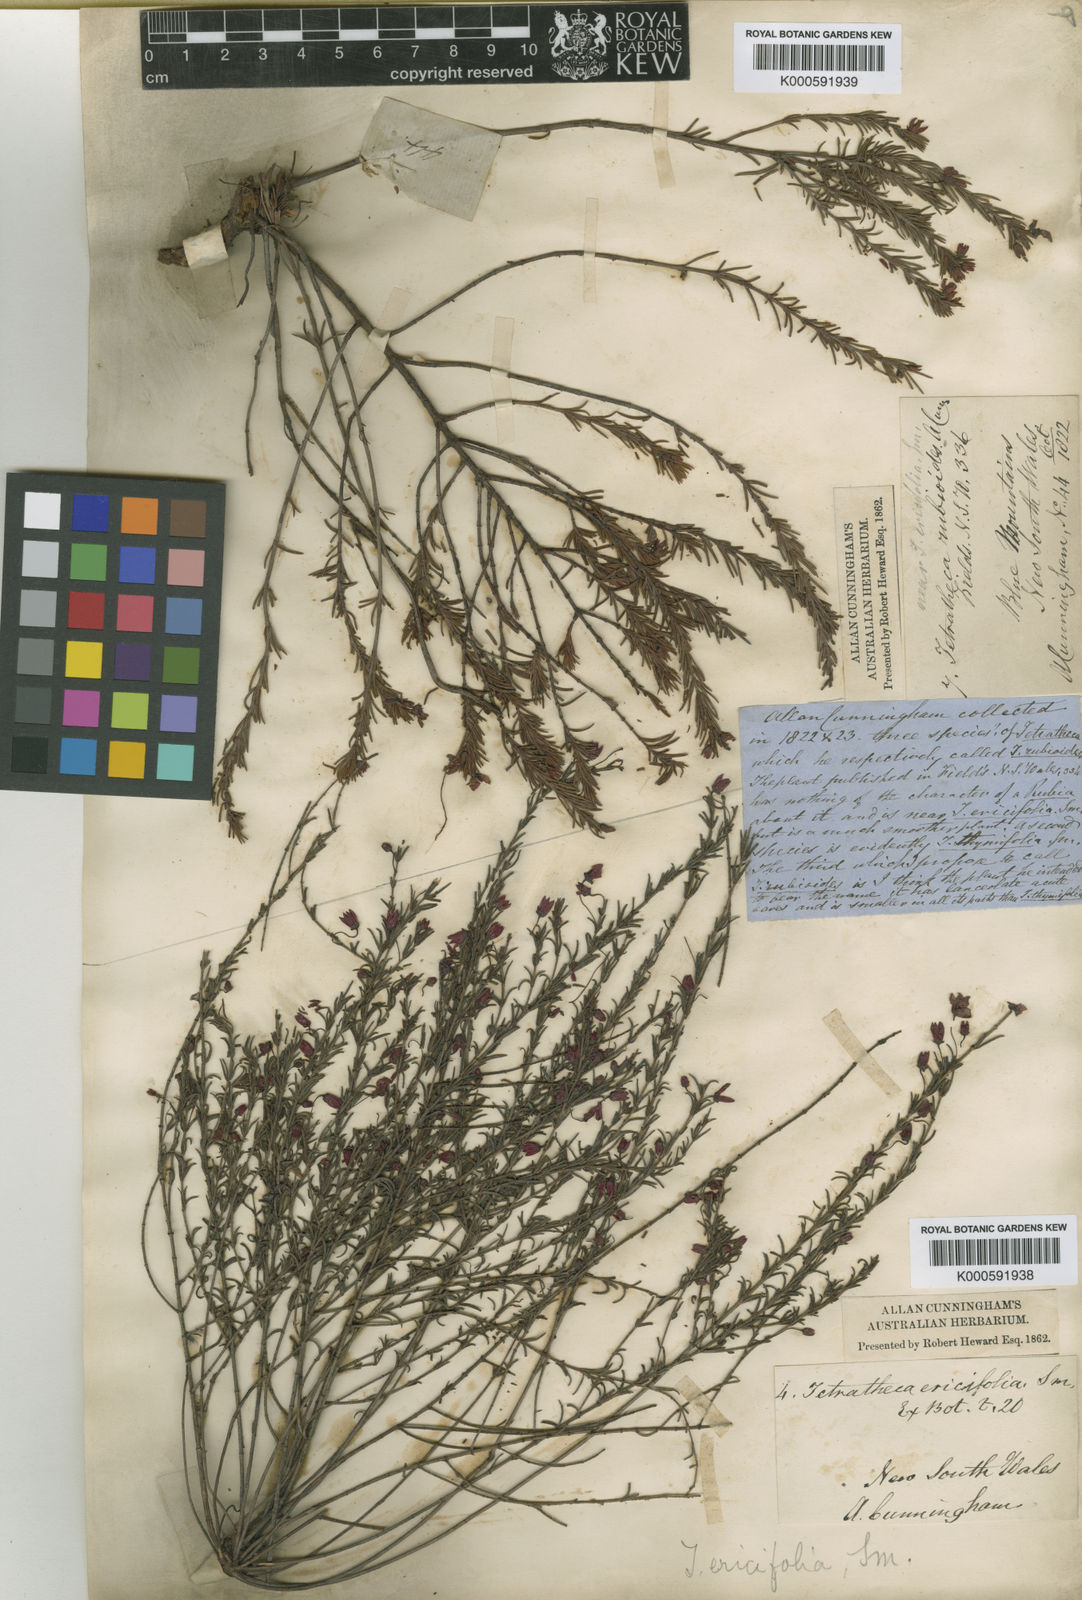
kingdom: Plantae
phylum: Tracheophyta
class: Magnoliopsida
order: Oxalidales
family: Elaeocarpaceae
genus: Tetratheca
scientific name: Tetratheca ericifolia
